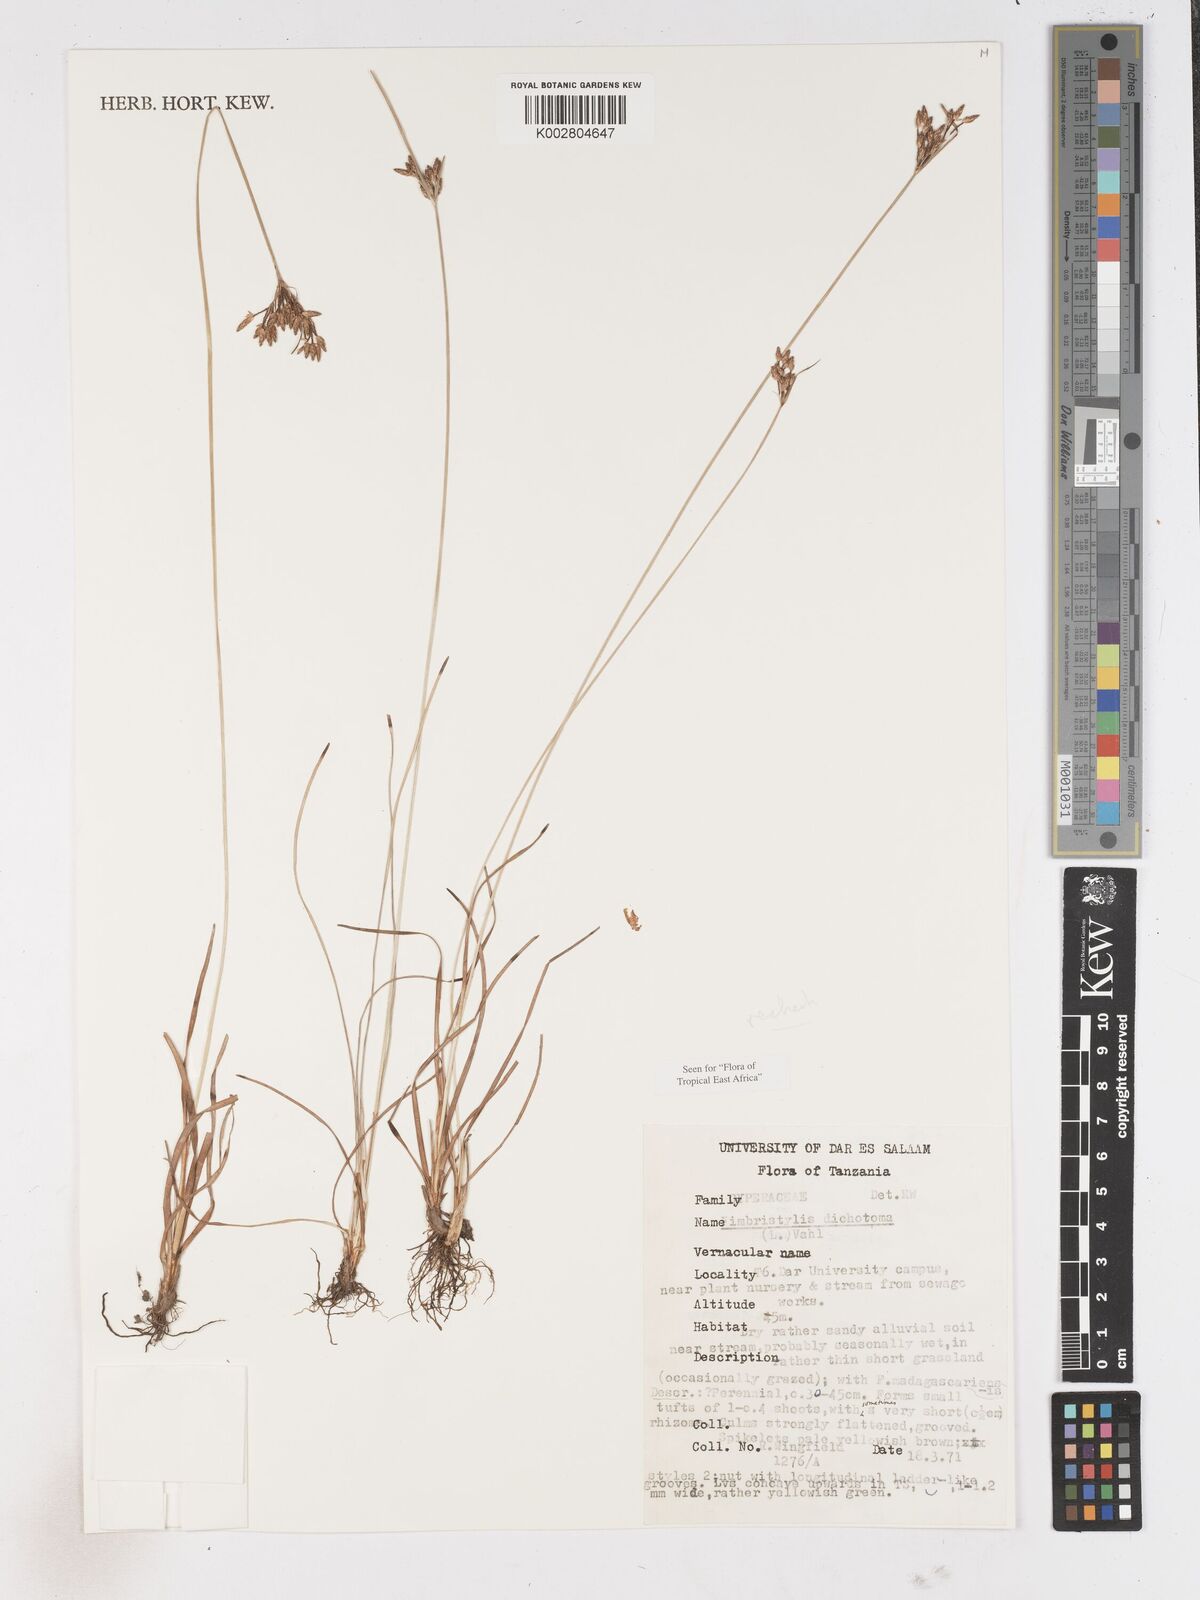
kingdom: Plantae
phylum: Tracheophyta
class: Liliopsida
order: Poales
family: Cyperaceae
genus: Fimbristylis
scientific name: Fimbristylis dichotoma
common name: Forked fimbry
